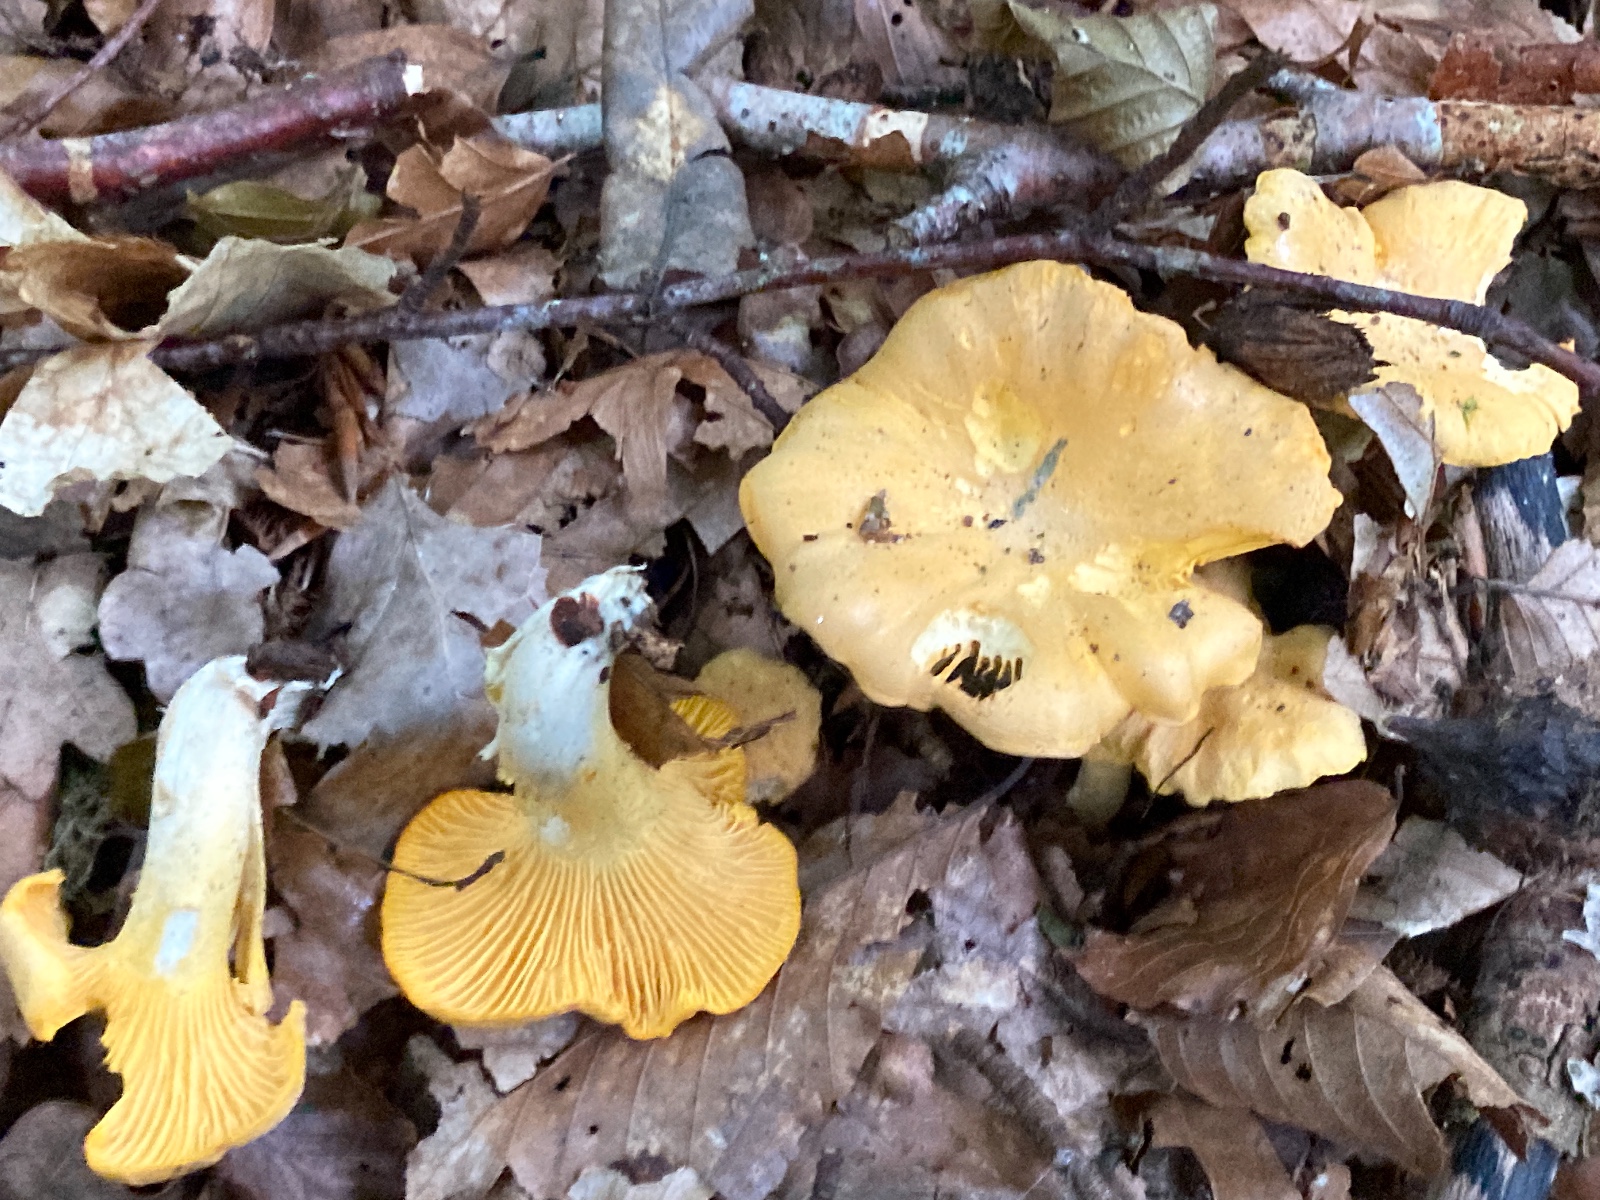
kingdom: Fungi
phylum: Basidiomycota
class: Agaricomycetes
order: Cantharellales
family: Hydnaceae
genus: Cantharellus
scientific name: Cantharellus cibarius
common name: almindelig kantarel
